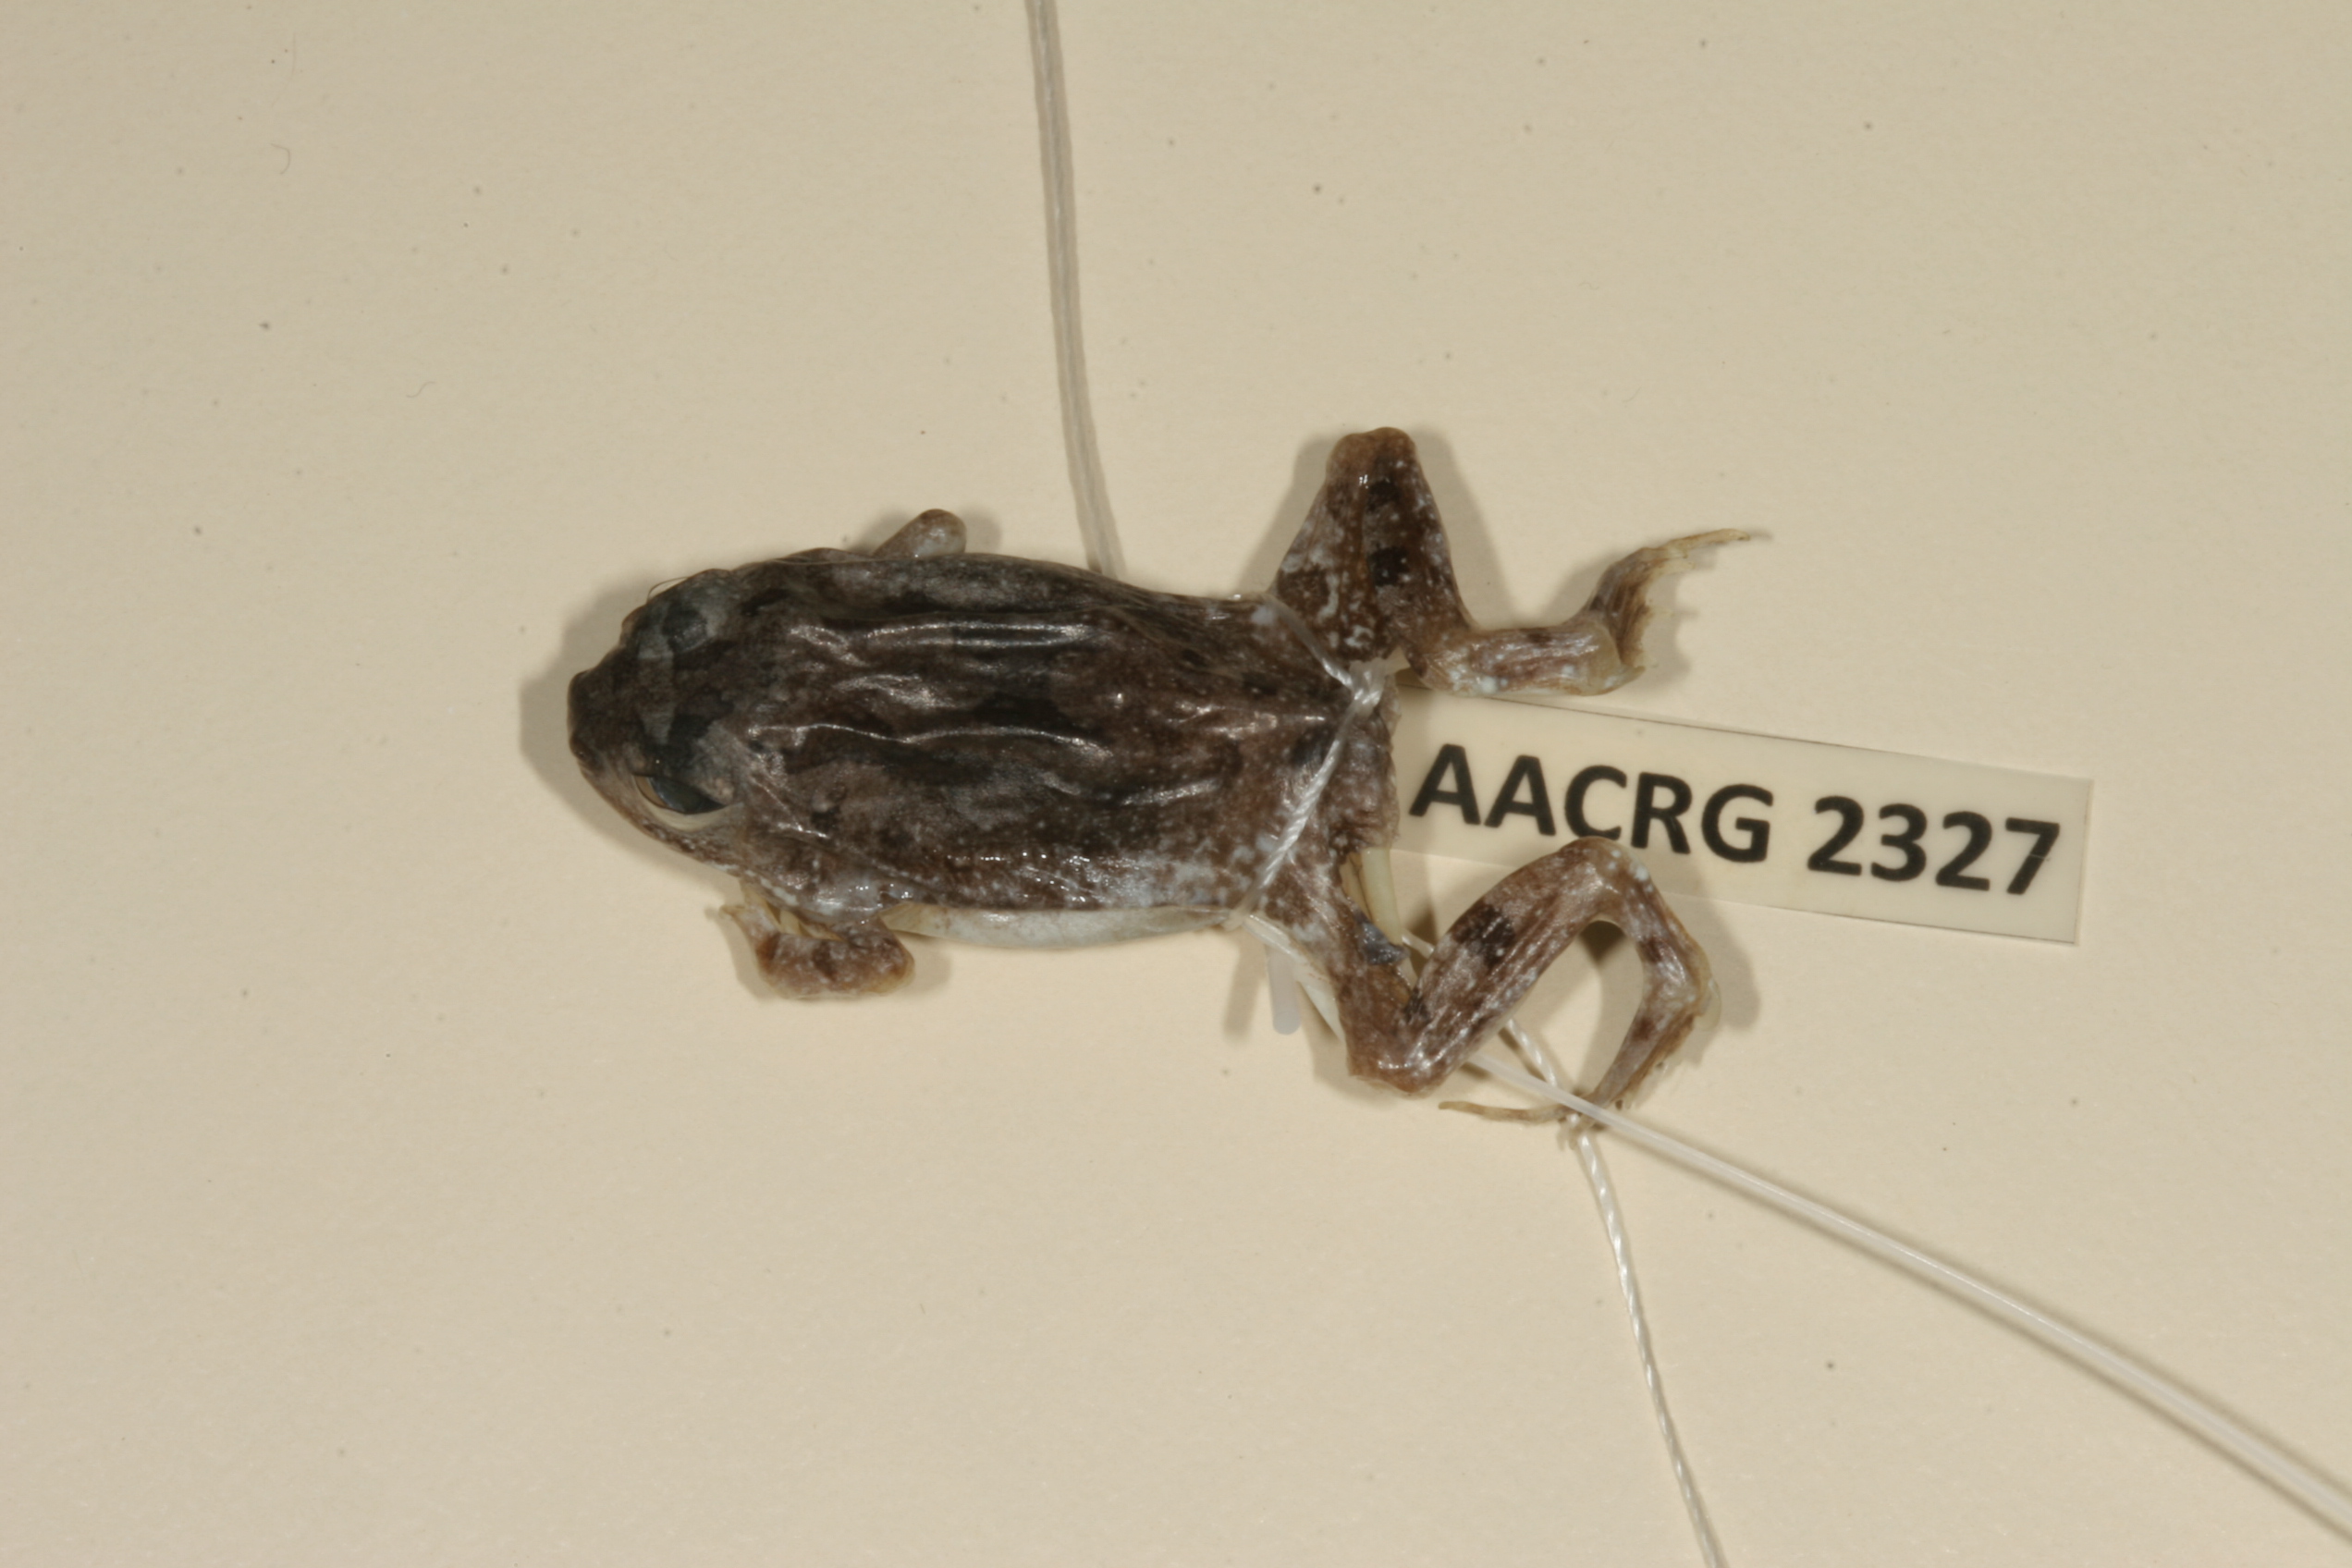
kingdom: Animalia
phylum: Chordata
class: Amphibia
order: Anura
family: Pyxicephalidae
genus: Tomopterna
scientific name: Tomopterna cryptotis
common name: Catequero bullfrog
